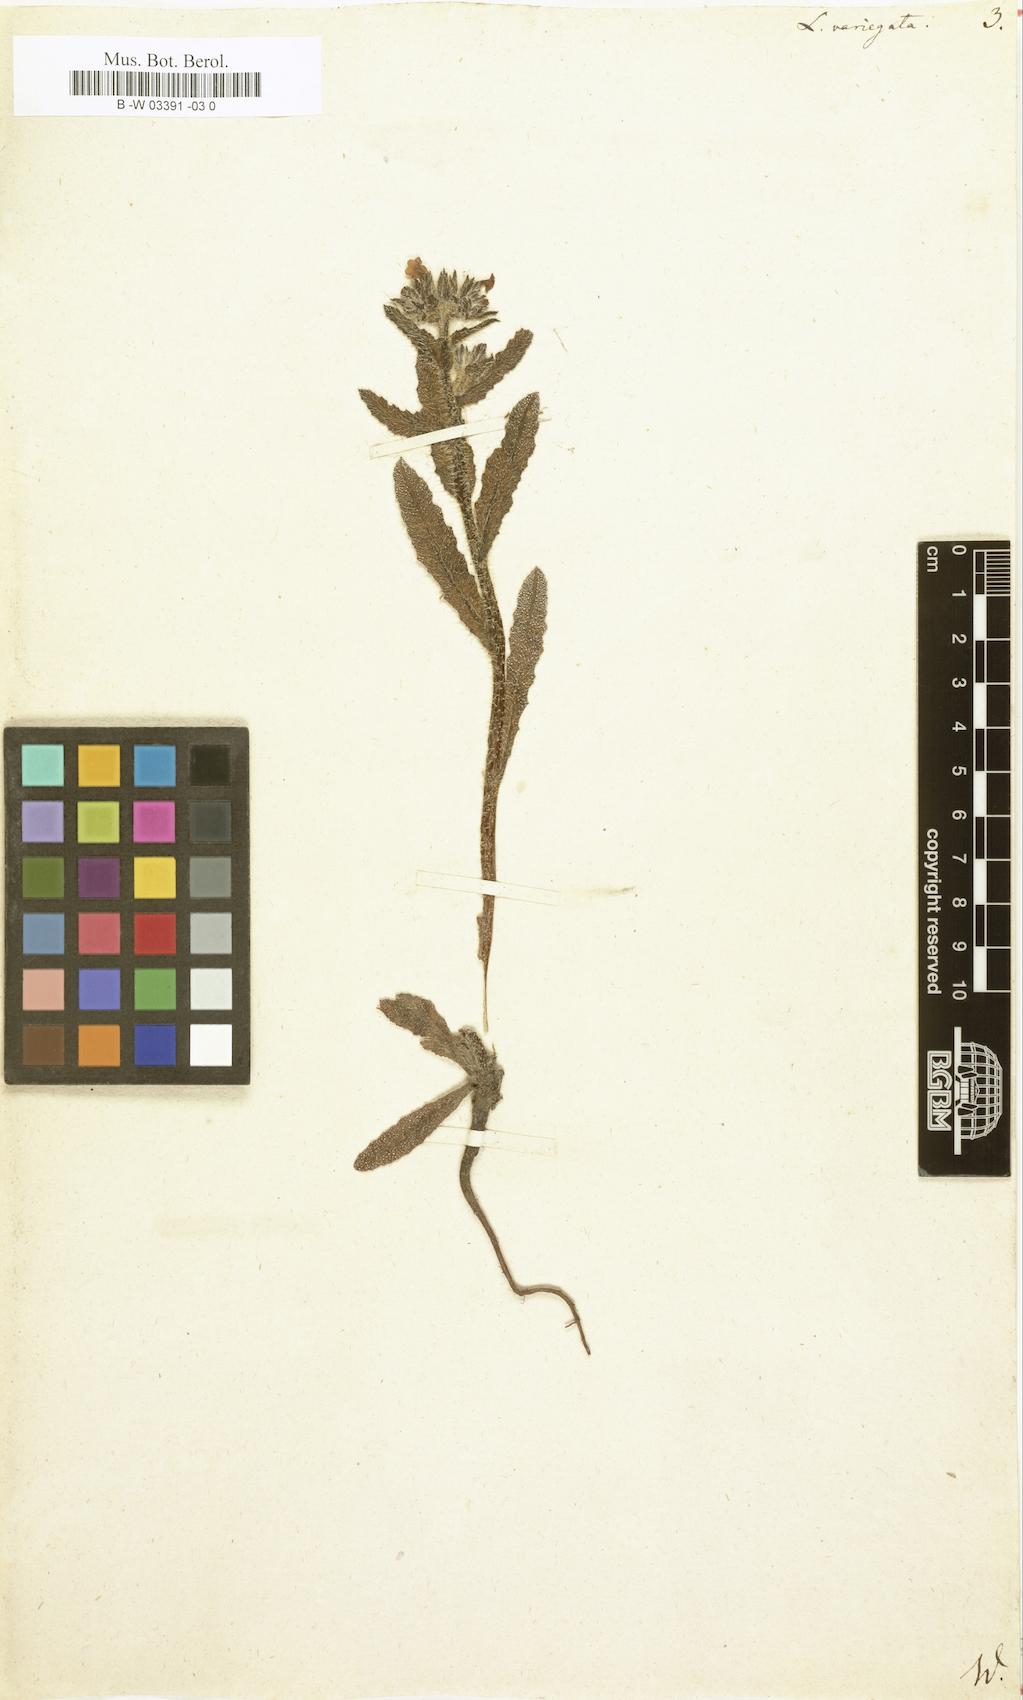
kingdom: Plantae
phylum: Tracheophyta
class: Magnoliopsida
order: Boraginales
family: Boraginaceae
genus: Anchusella
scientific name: Anchusella variegata
